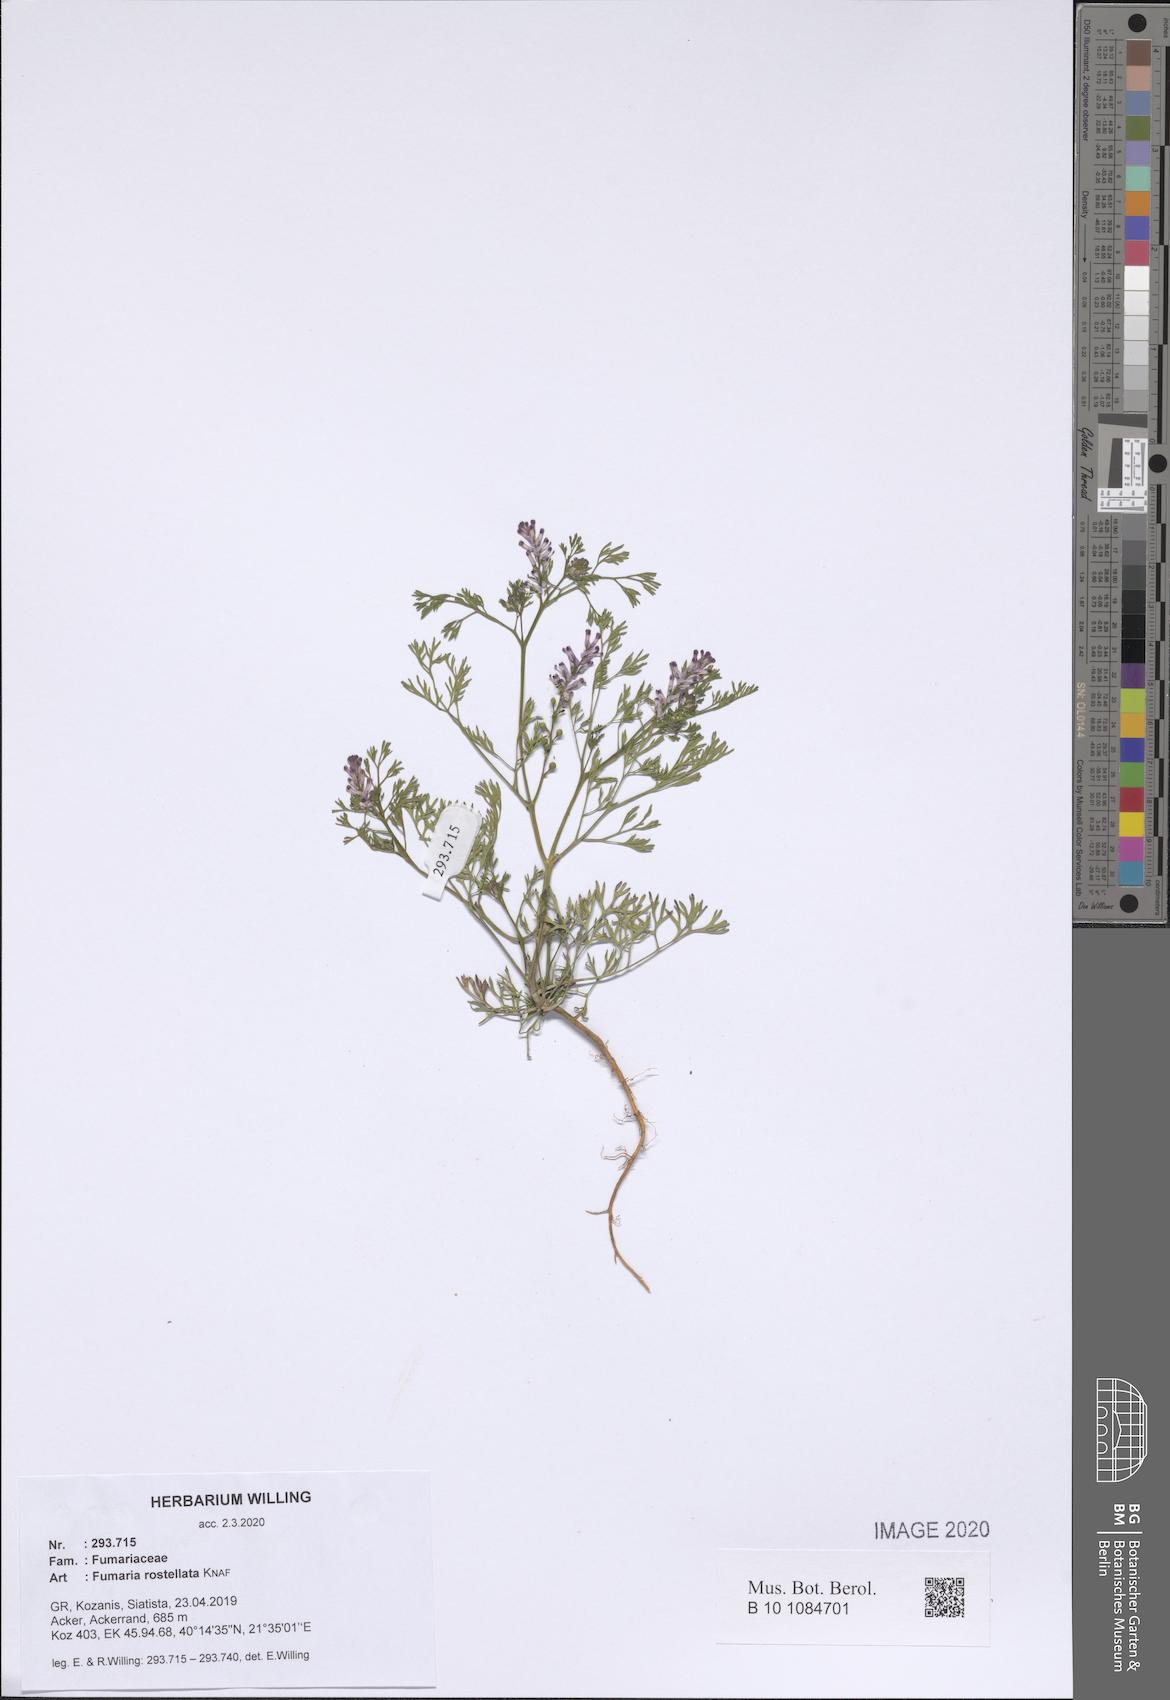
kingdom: Plantae
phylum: Tracheophyta
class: Magnoliopsida
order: Ranunculales
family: Papaveraceae
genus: Fumaria
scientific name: Fumaria rostellata
